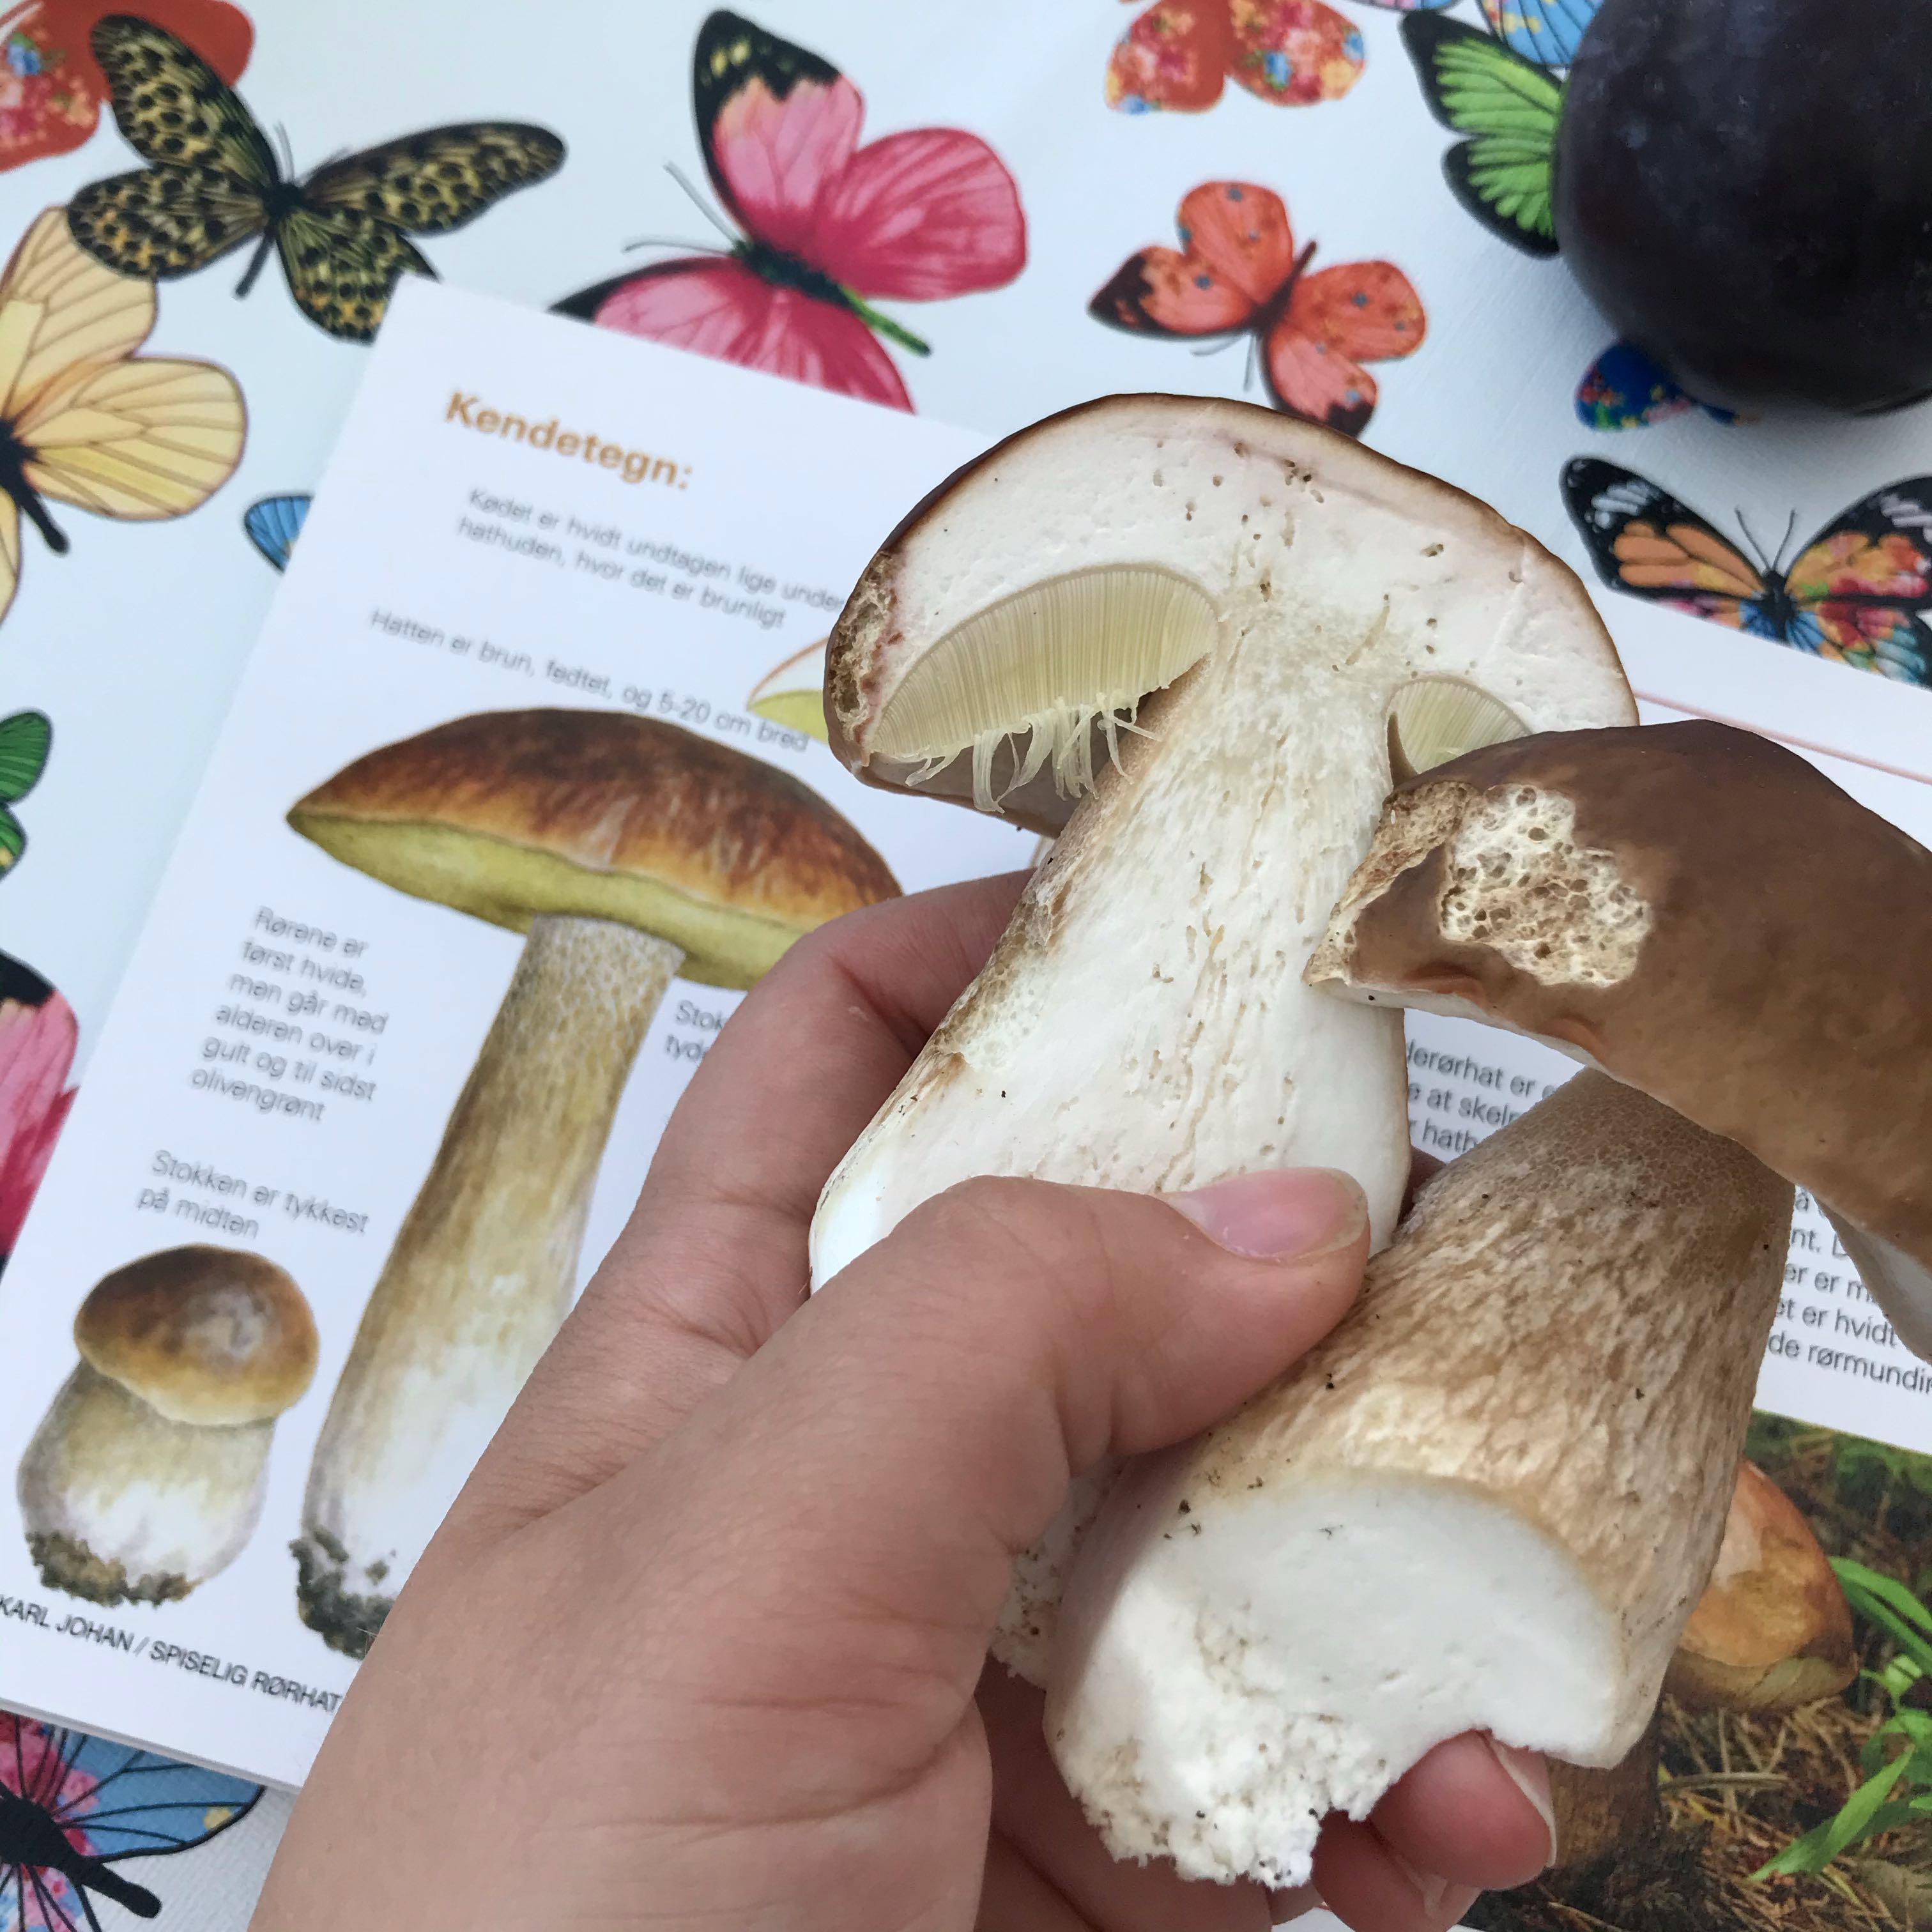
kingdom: Fungi
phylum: Basidiomycota
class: Agaricomycetes
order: Boletales
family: Boletaceae
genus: Boletus
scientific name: Boletus edulis
